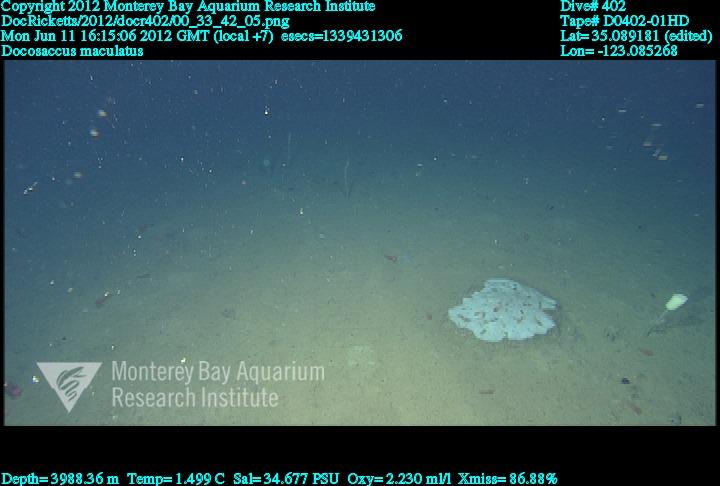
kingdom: Animalia
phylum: Porifera
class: Hexactinellida
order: Lyssacinosida
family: Euplectellidae
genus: Docosaccus
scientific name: Docosaccus maculatus
